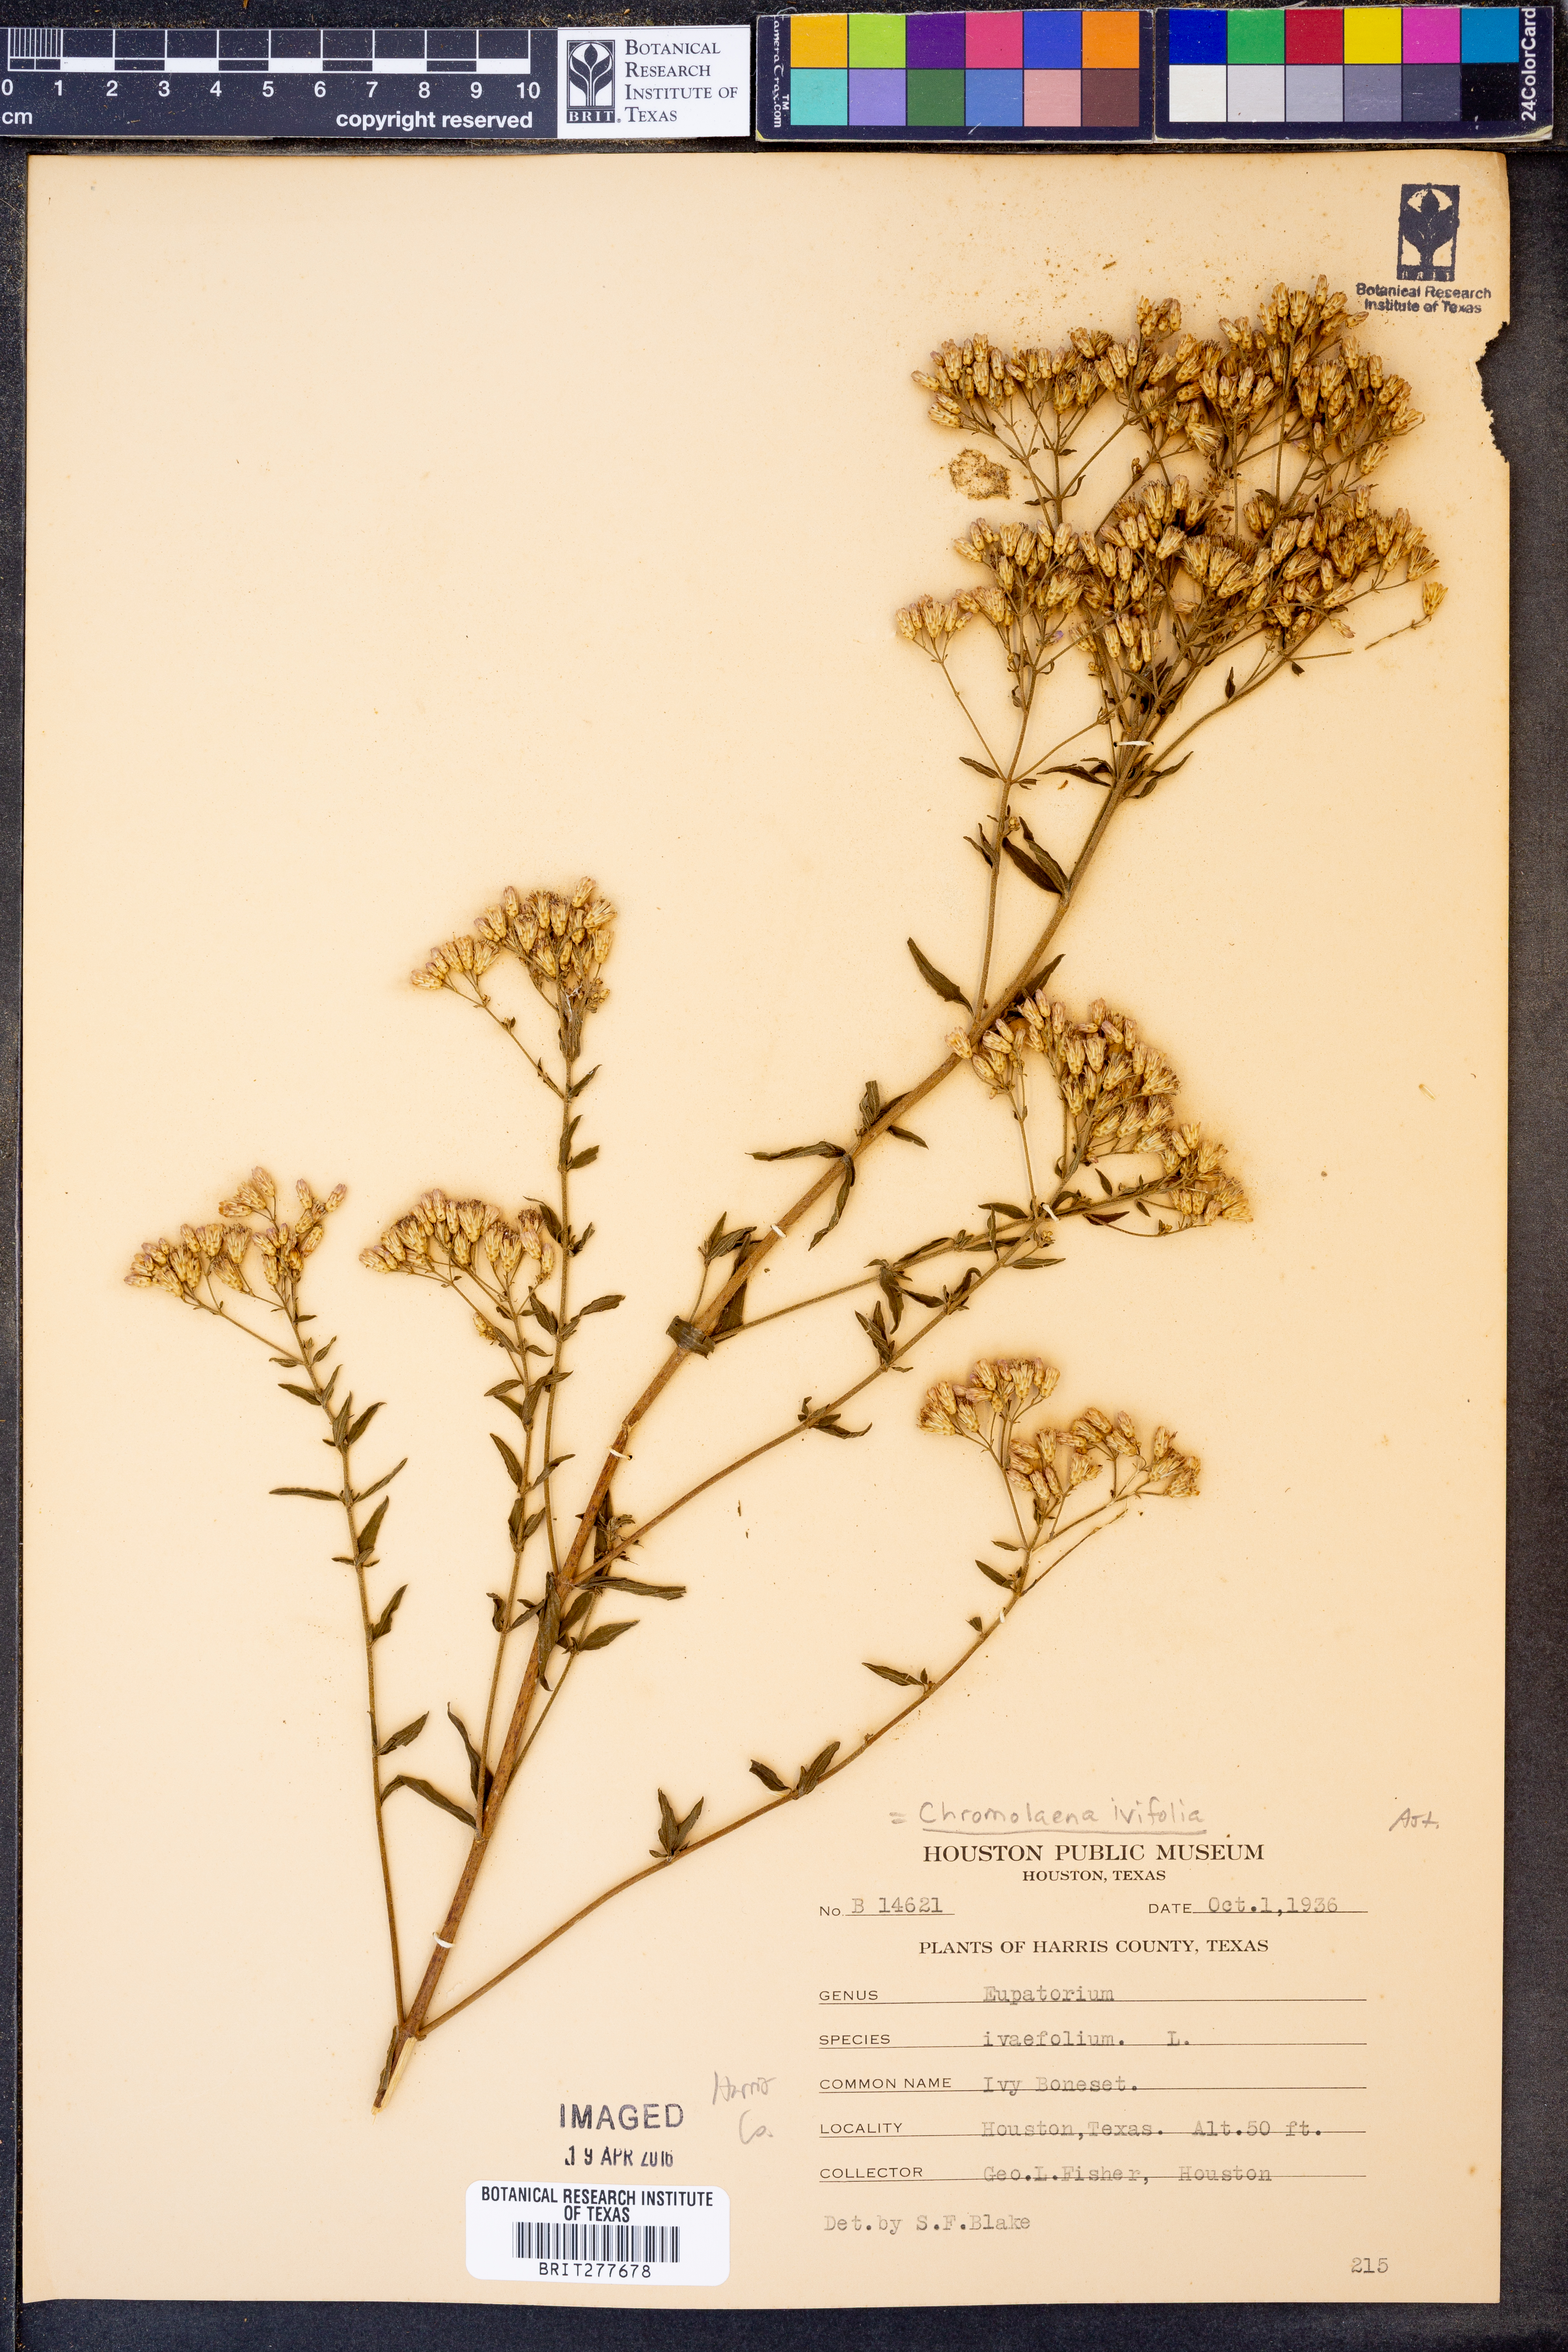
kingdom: Plantae
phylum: Tracheophyta
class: Magnoliopsida
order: Asterales
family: Asteraceae
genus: Chromolaena
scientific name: Chromolaena ivifolia
